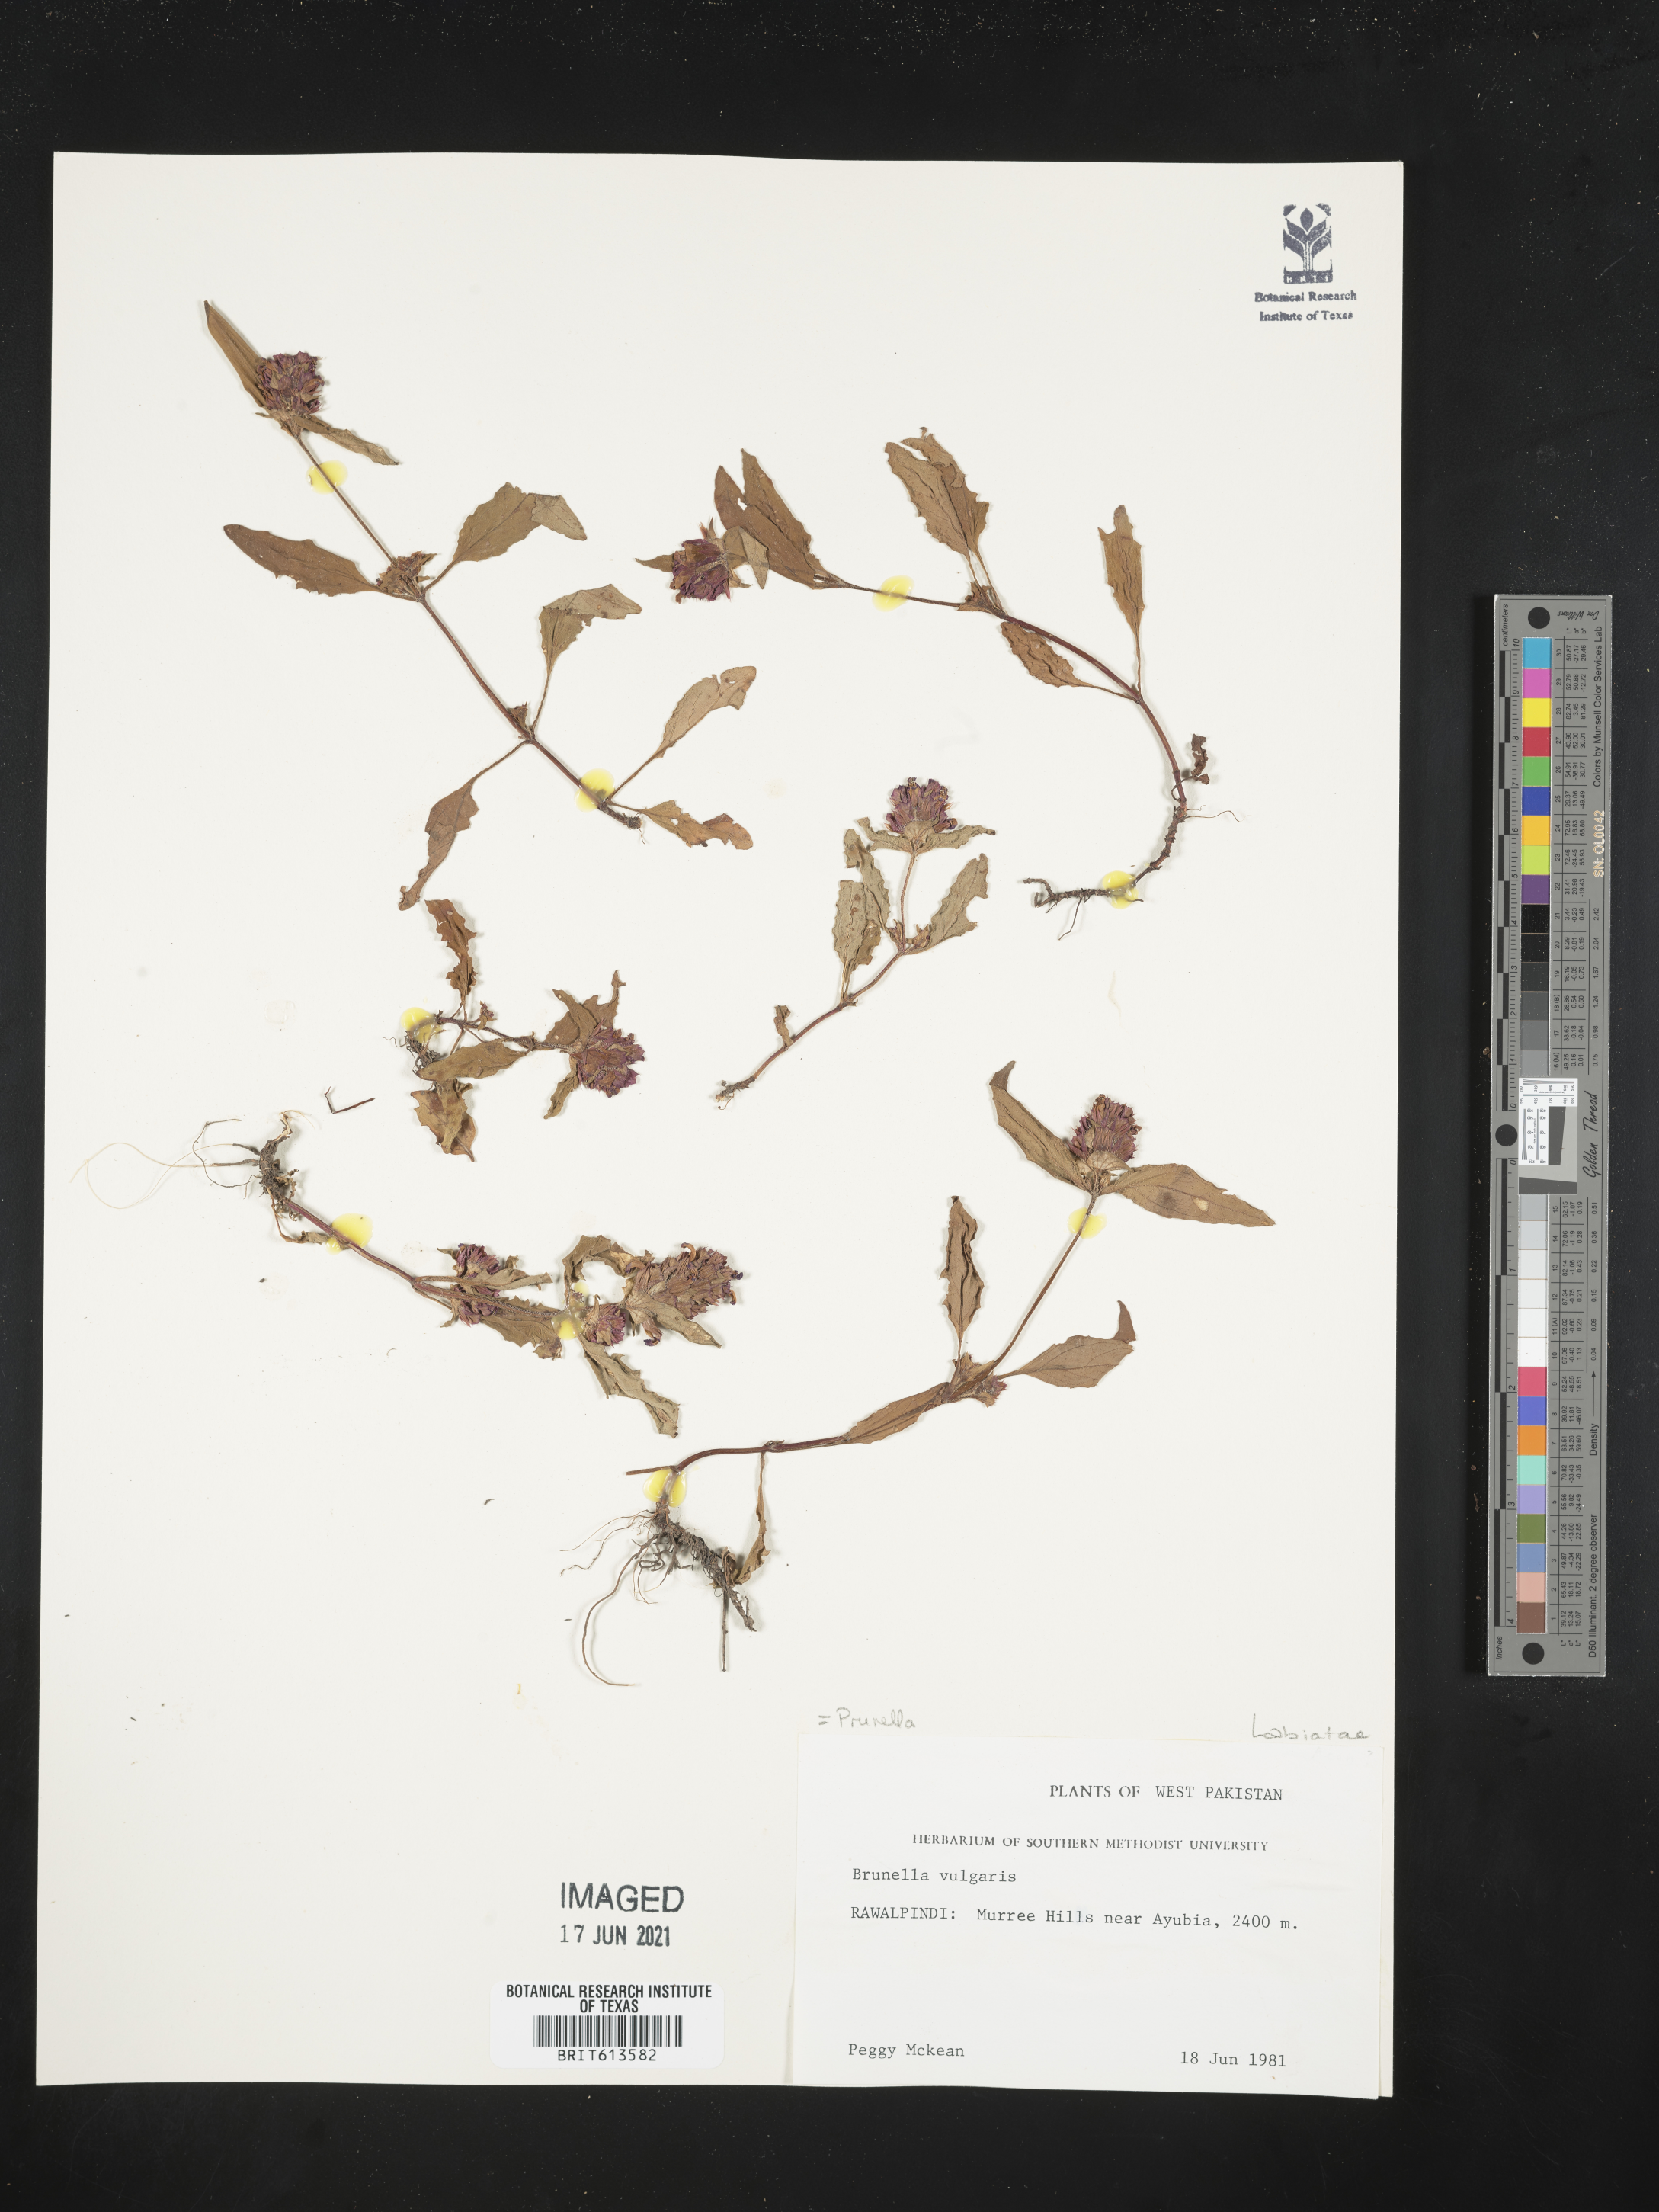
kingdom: Plantae
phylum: Tracheophyta
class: Magnoliopsida
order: Lamiales
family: Lamiaceae
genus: Prunella
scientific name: Prunella vulgaris
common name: Heal-all
